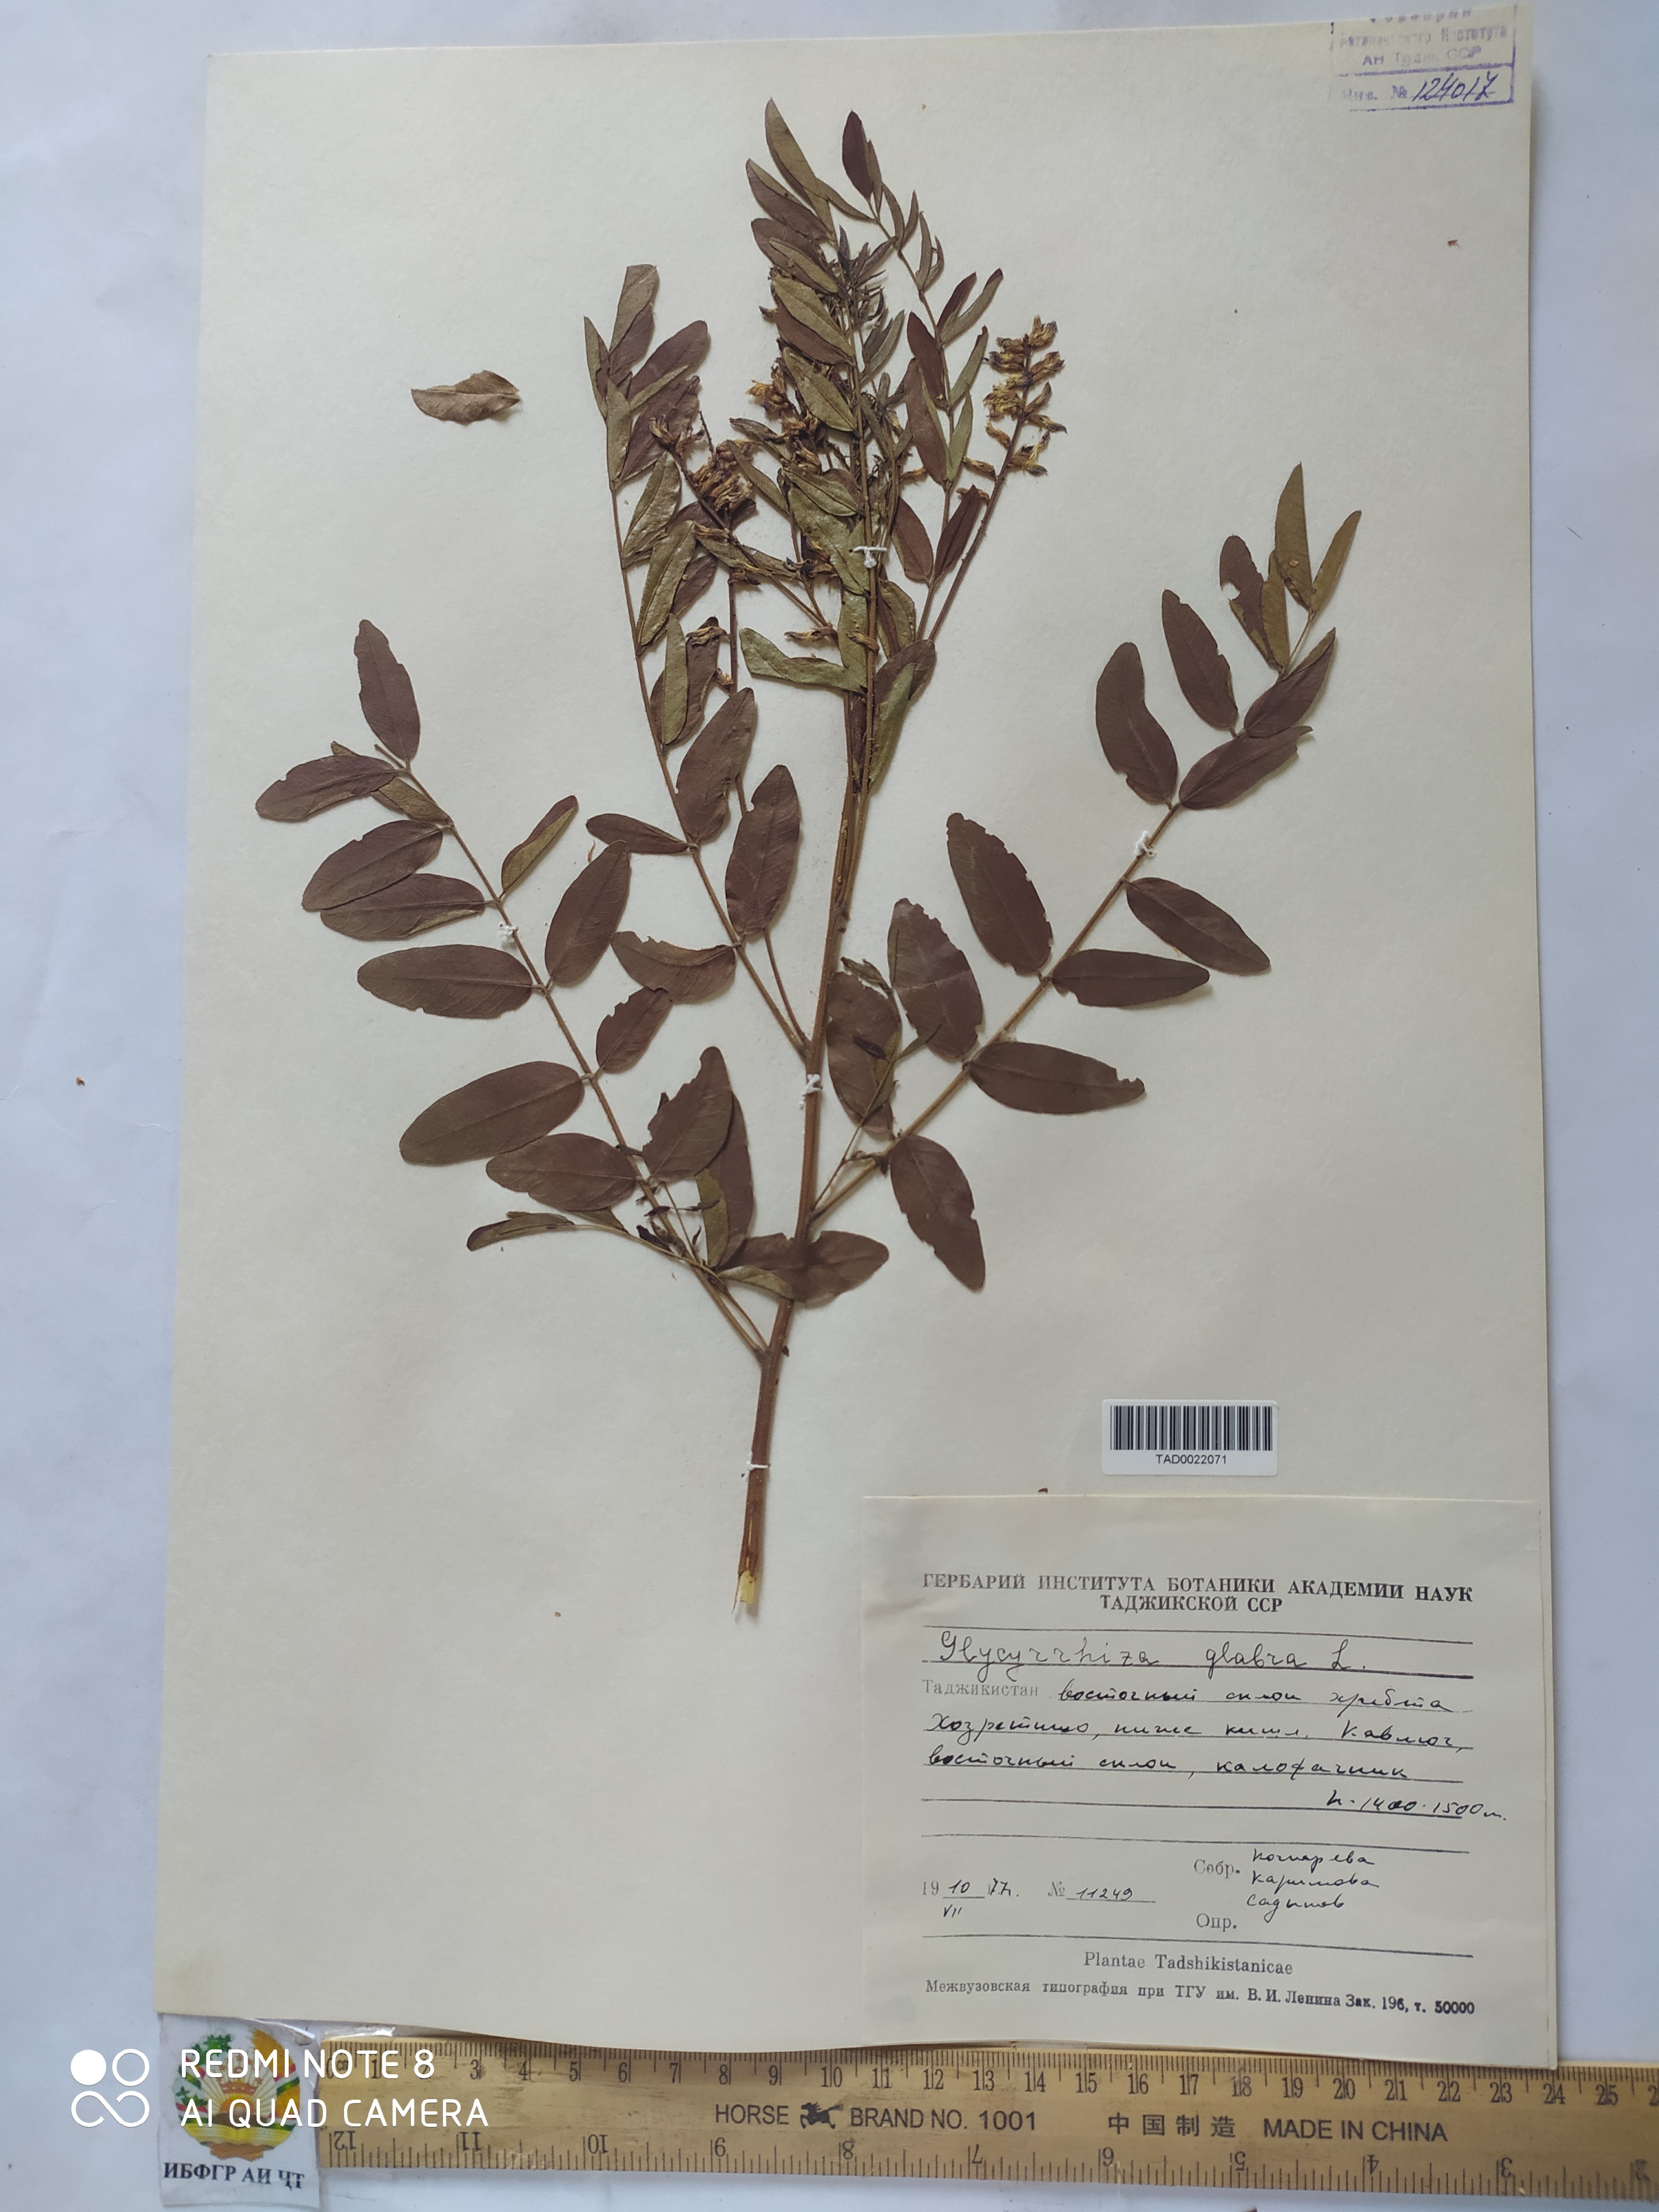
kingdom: Plantae
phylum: Tracheophyta
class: Magnoliopsida
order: Fabales
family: Fabaceae
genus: Glycyrrhiza
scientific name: Glycyrrhiza glabra
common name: Liquorice
